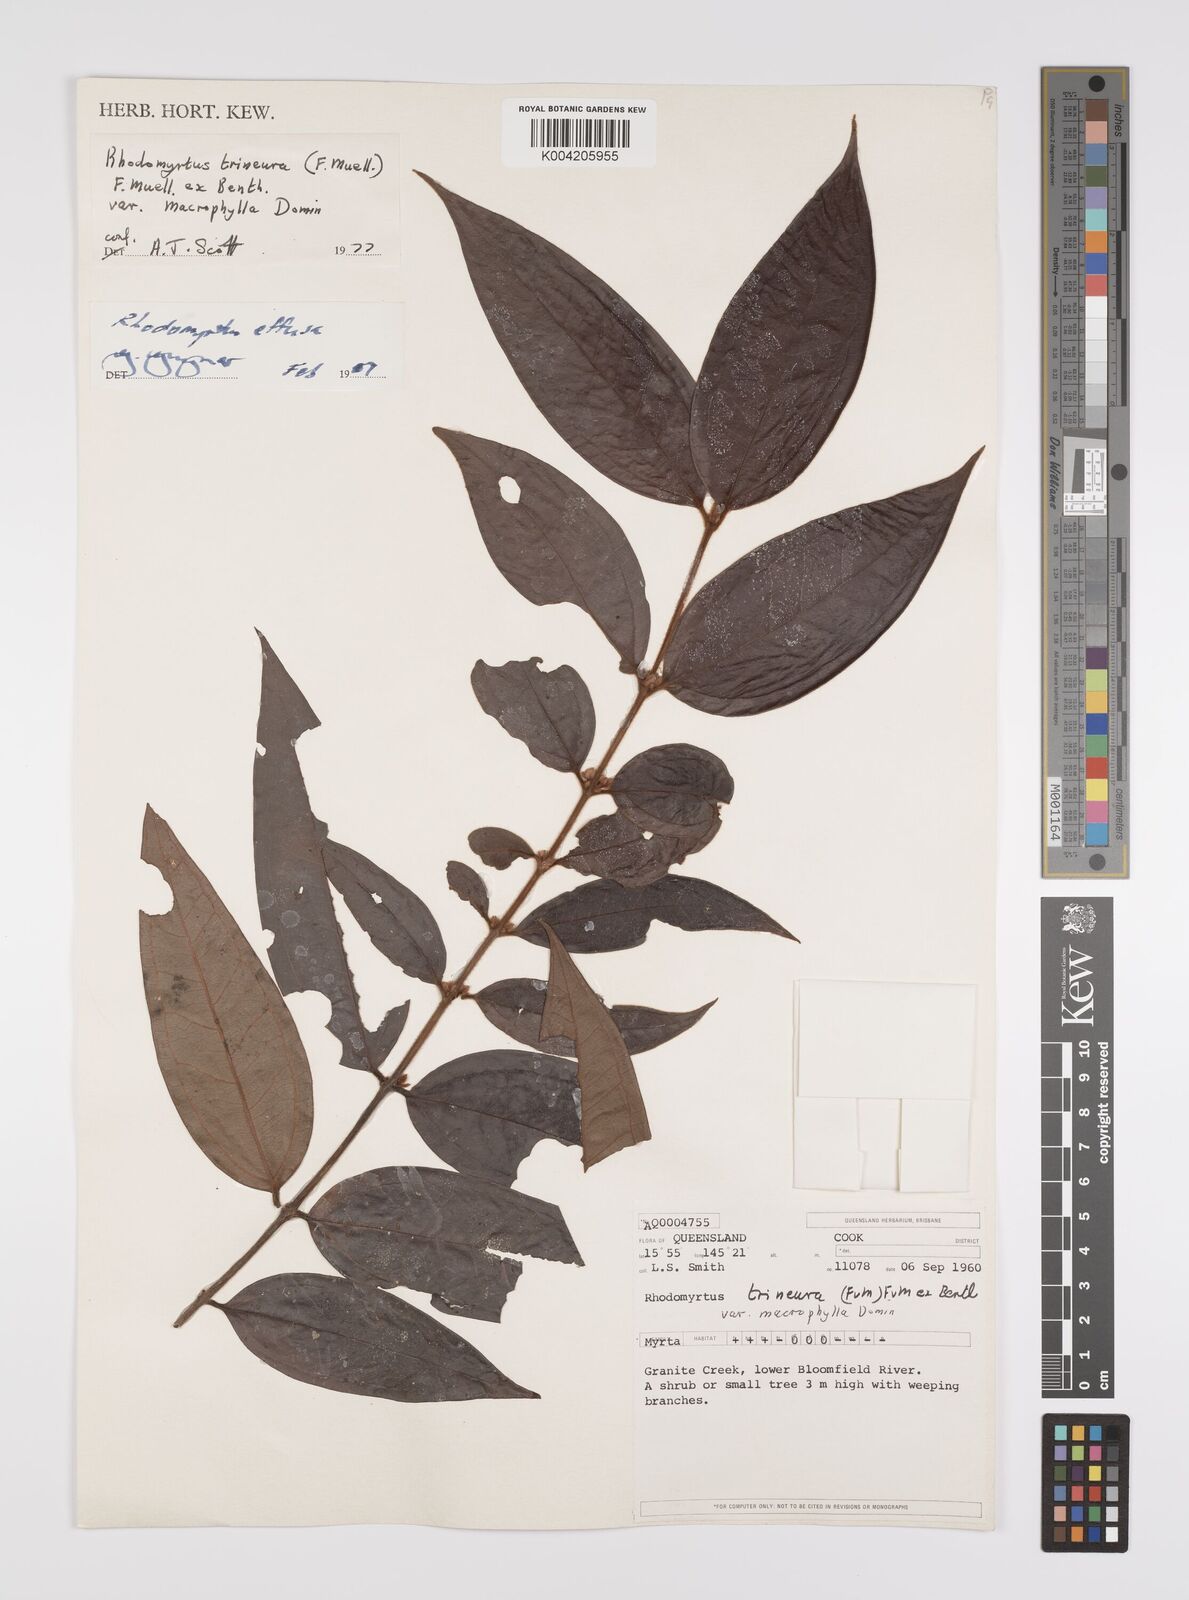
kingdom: Plantae
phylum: Tracheophyta
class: Magnoliopsida
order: Myrtales
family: Myrtaceae
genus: Rhodomyrtus
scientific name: Rhodomyrtus effusa
